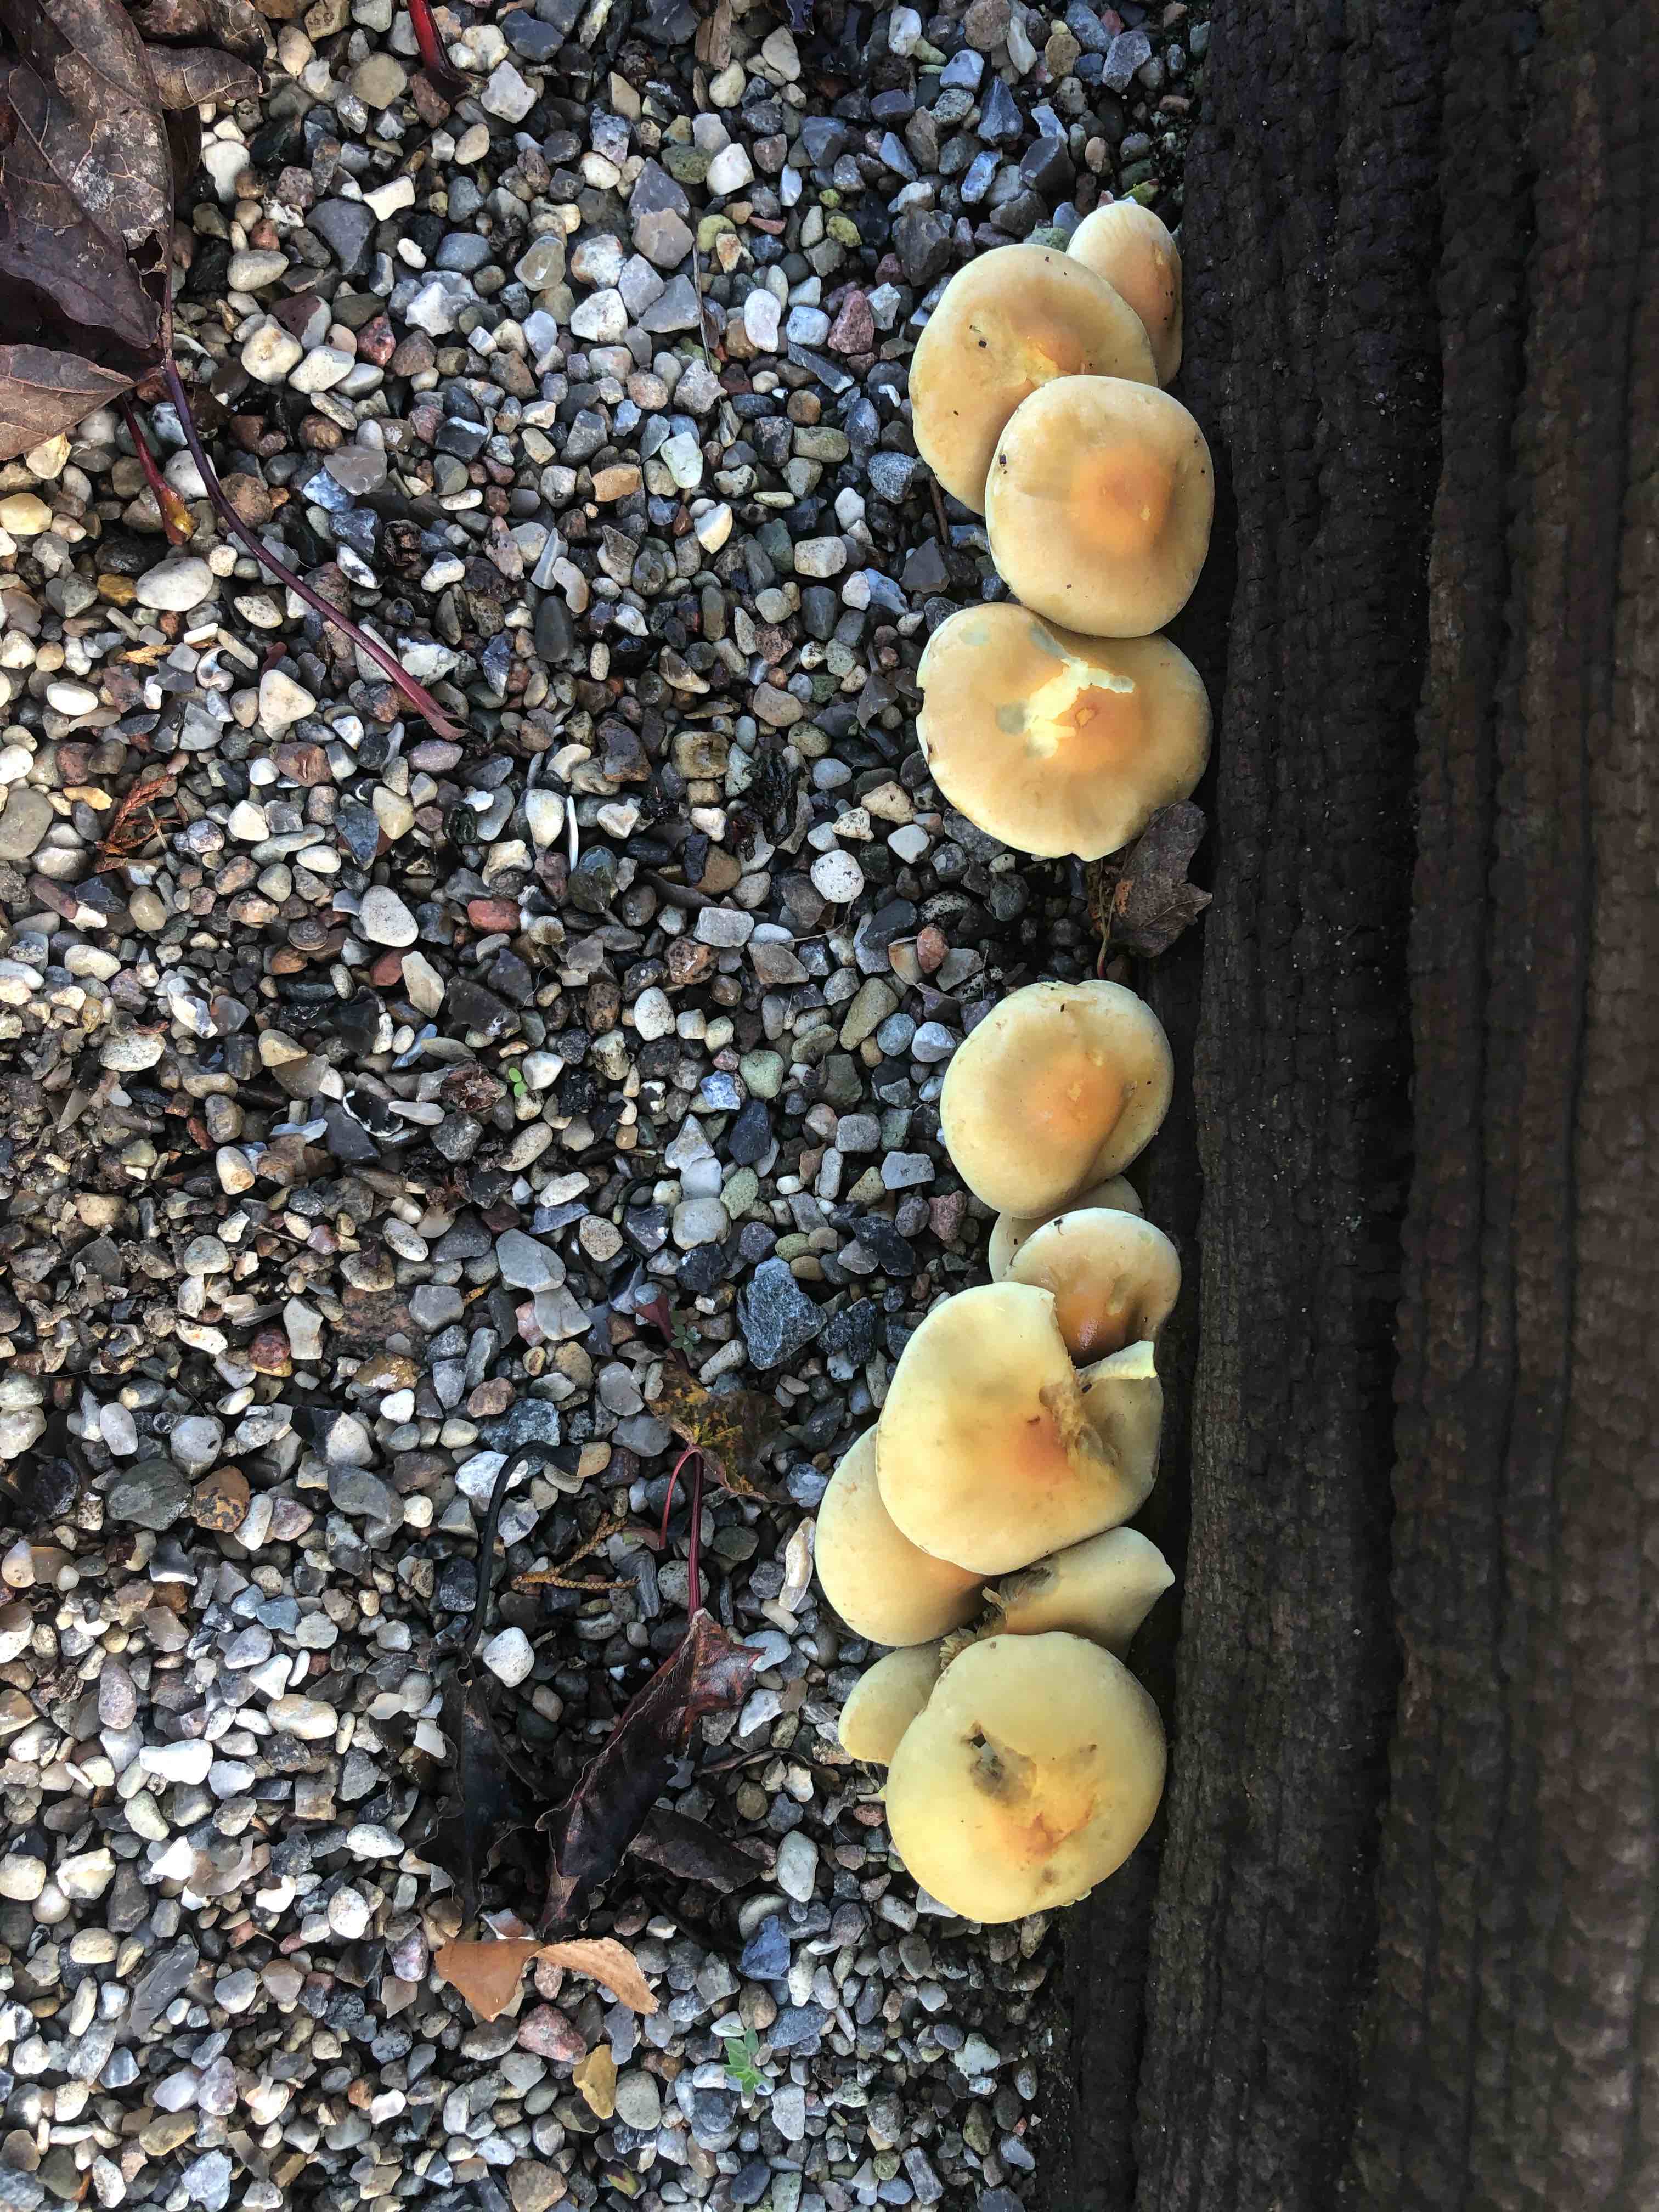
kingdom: Fungi
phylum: Basidiomycota
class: Agaricomycetes
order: Agaricales
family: Strophariaceae
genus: Hypholoma
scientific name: Hypholoma fasciculare
